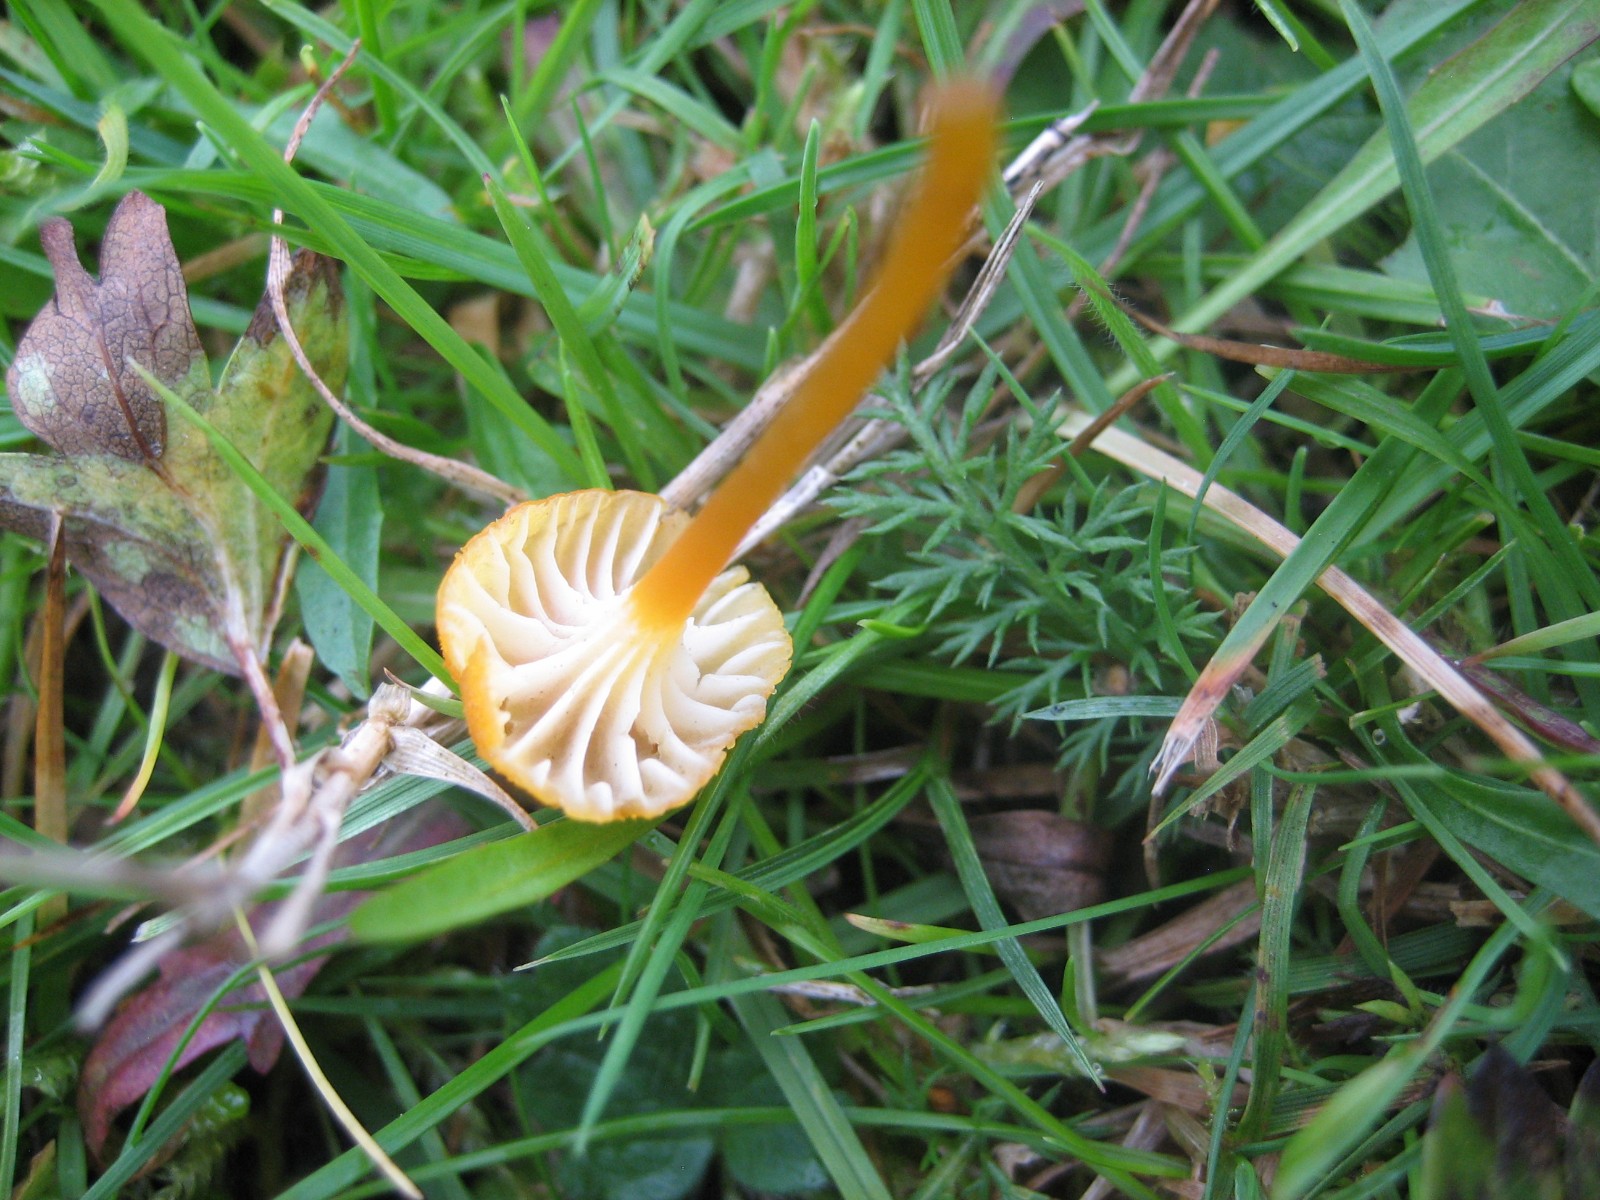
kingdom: Fungi
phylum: Basidiomycota
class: Agaricomycetes
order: Agaricales
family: Hygrophoraceae
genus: Hygrocybe
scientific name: Hygrocybe cantharellus
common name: kantarel-vokshat
